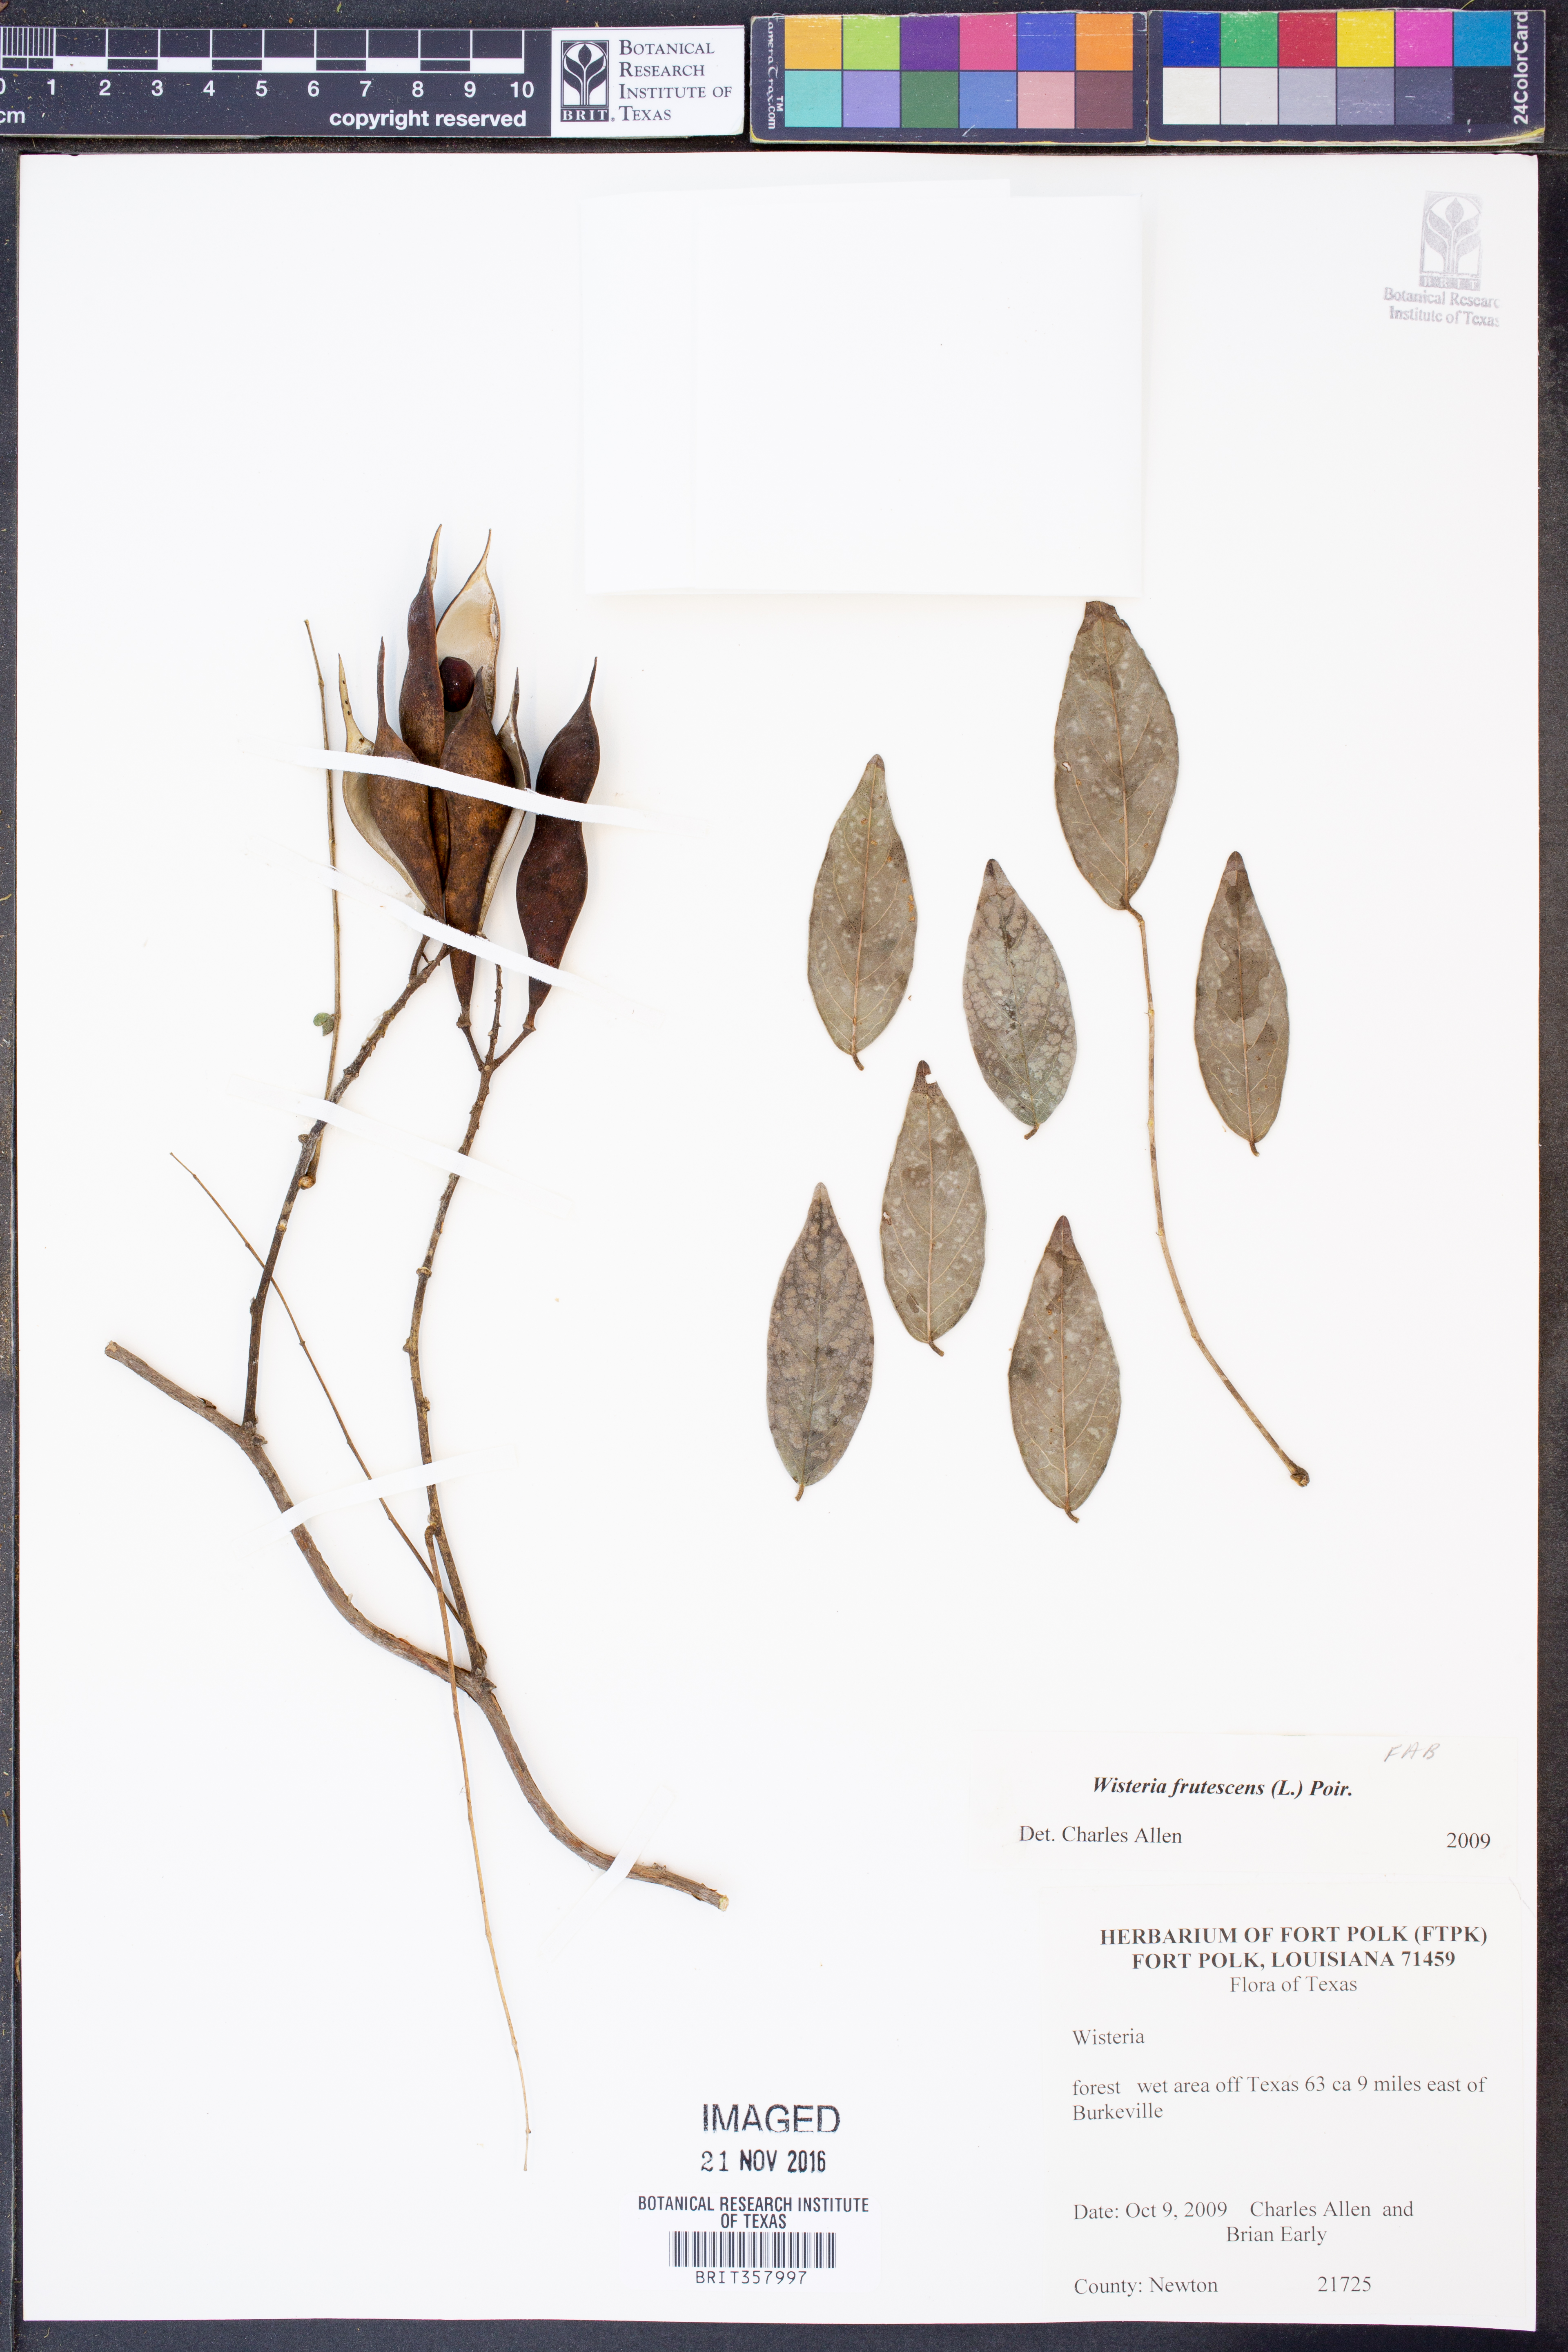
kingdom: Plantae
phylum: Tracheophyta
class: Magnoliopsida
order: Fabales
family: Fabaceae
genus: Wisteria
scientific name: Wisteria frutescens
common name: American wisteria
